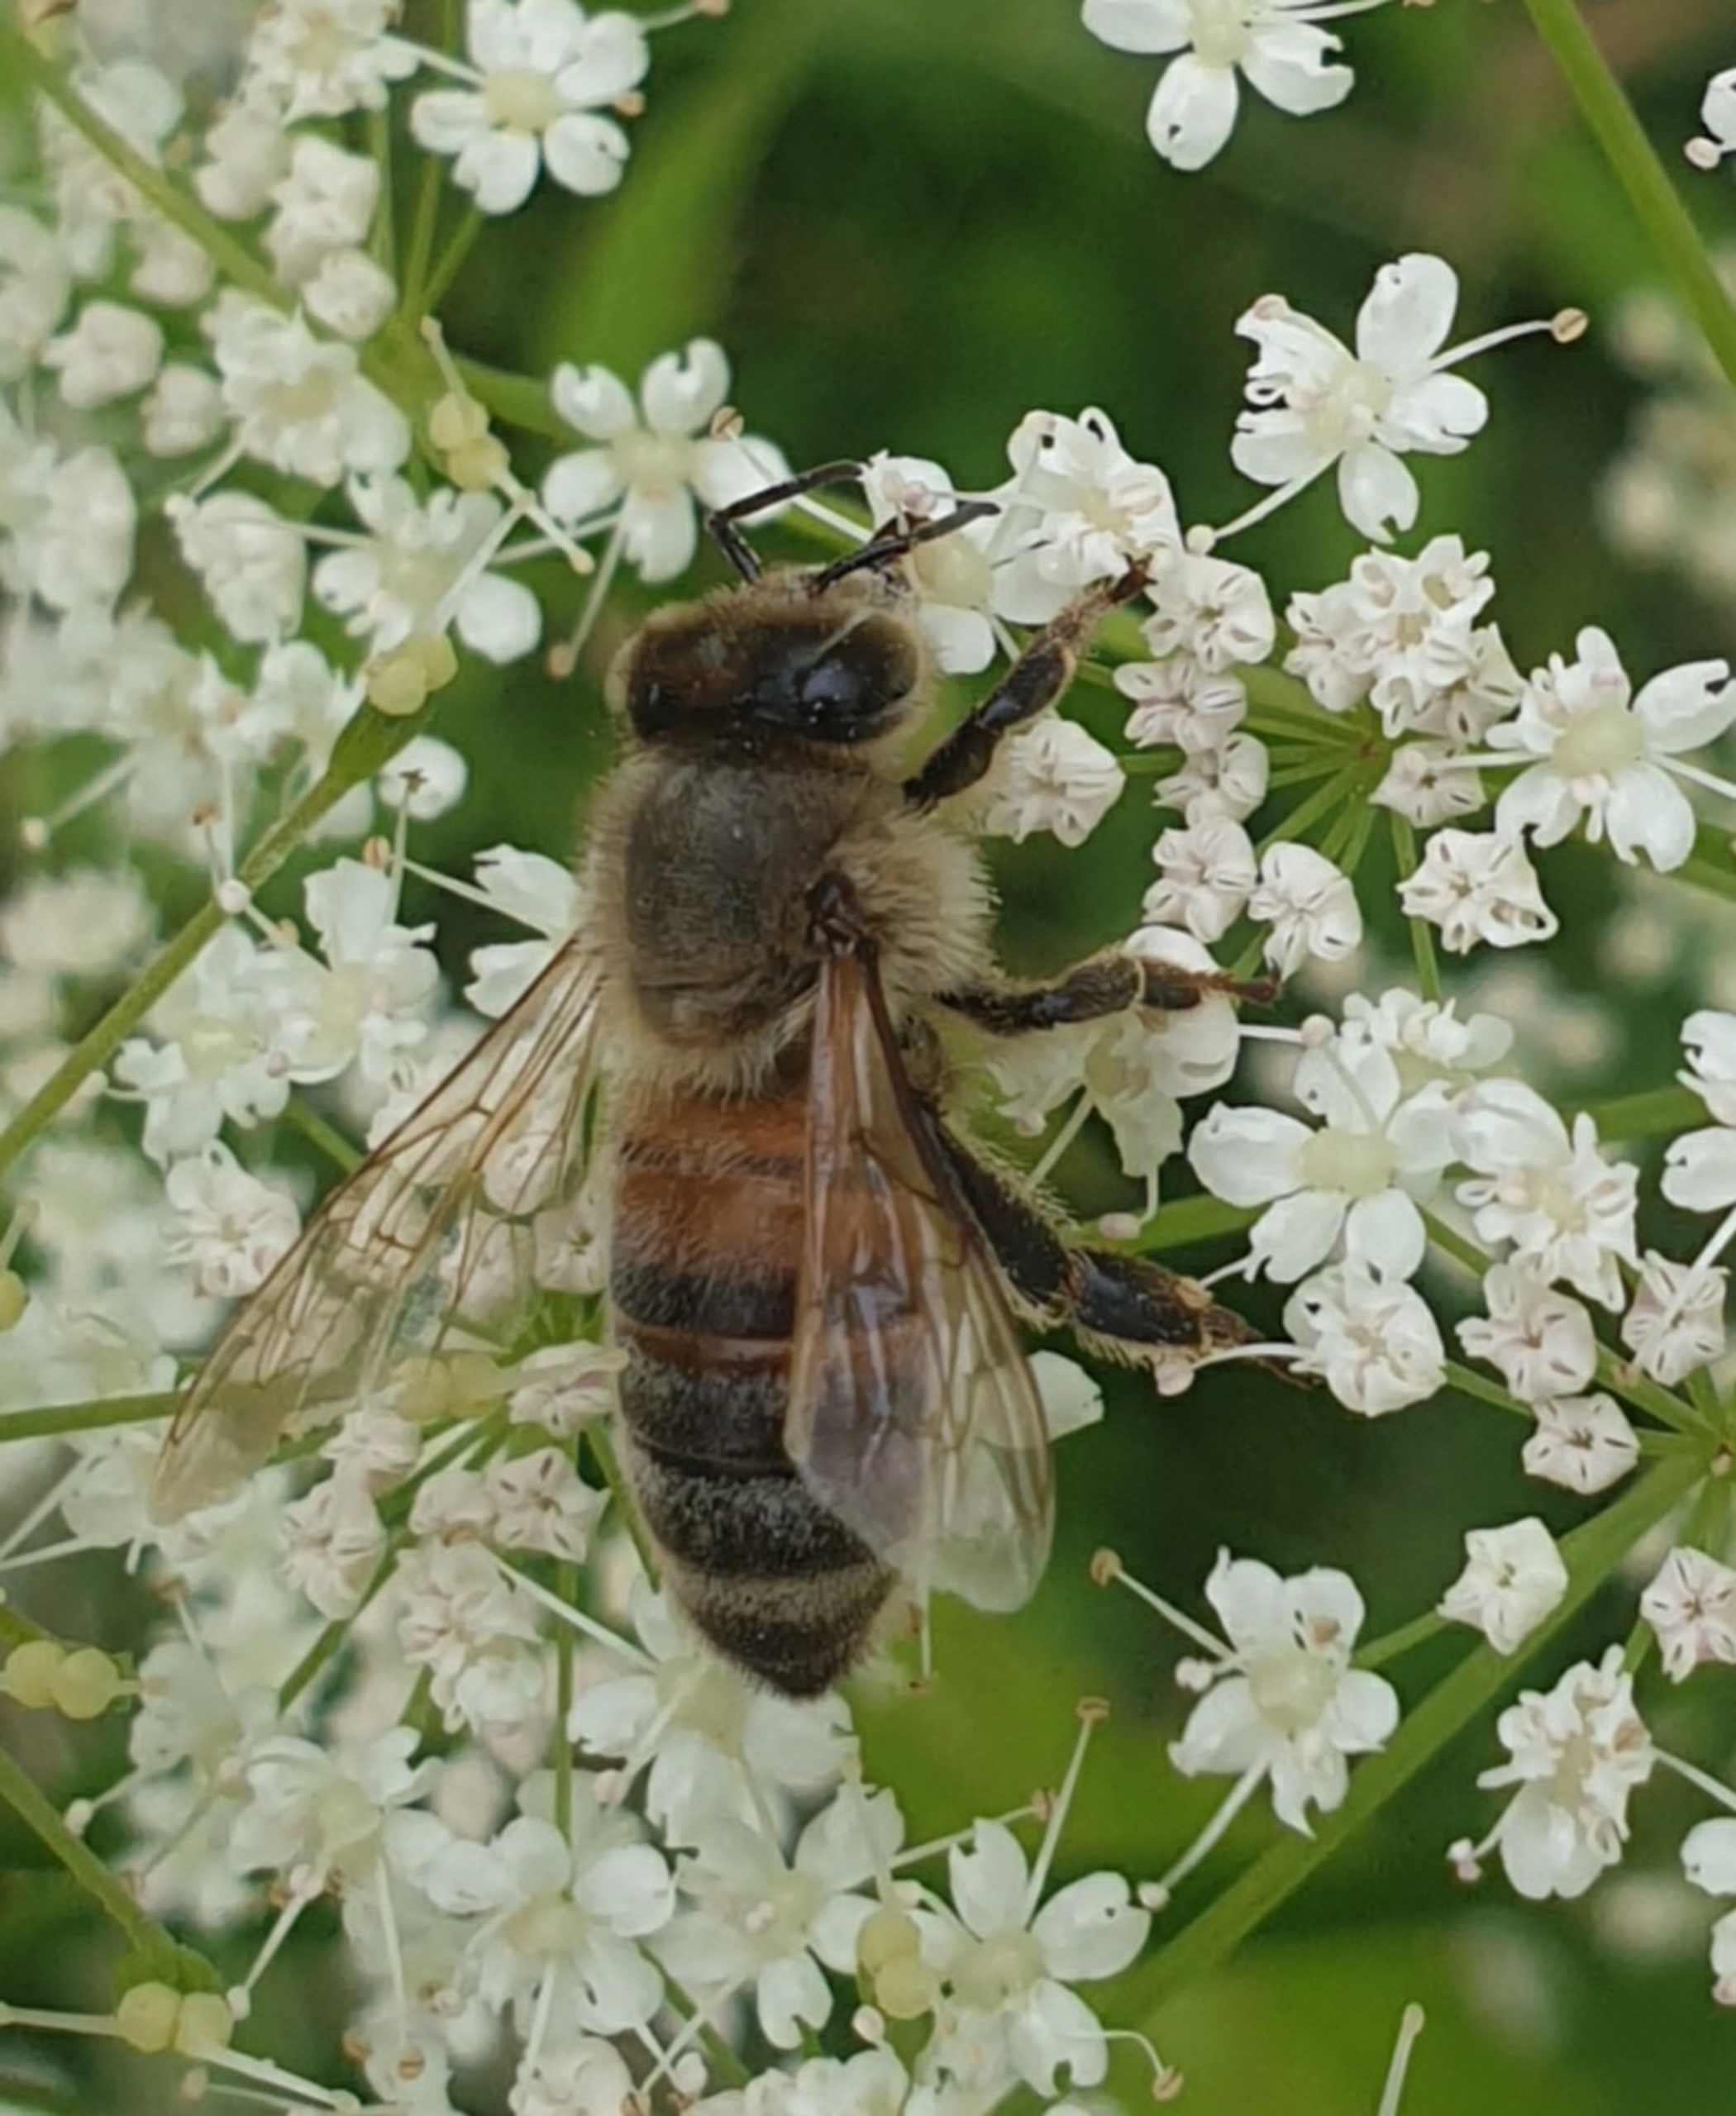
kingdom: Animalia
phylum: Arthropoda
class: Insecta
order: Hymenoptera
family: Apidae
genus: Apis
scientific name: Apis mellifera
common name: Honningbi
